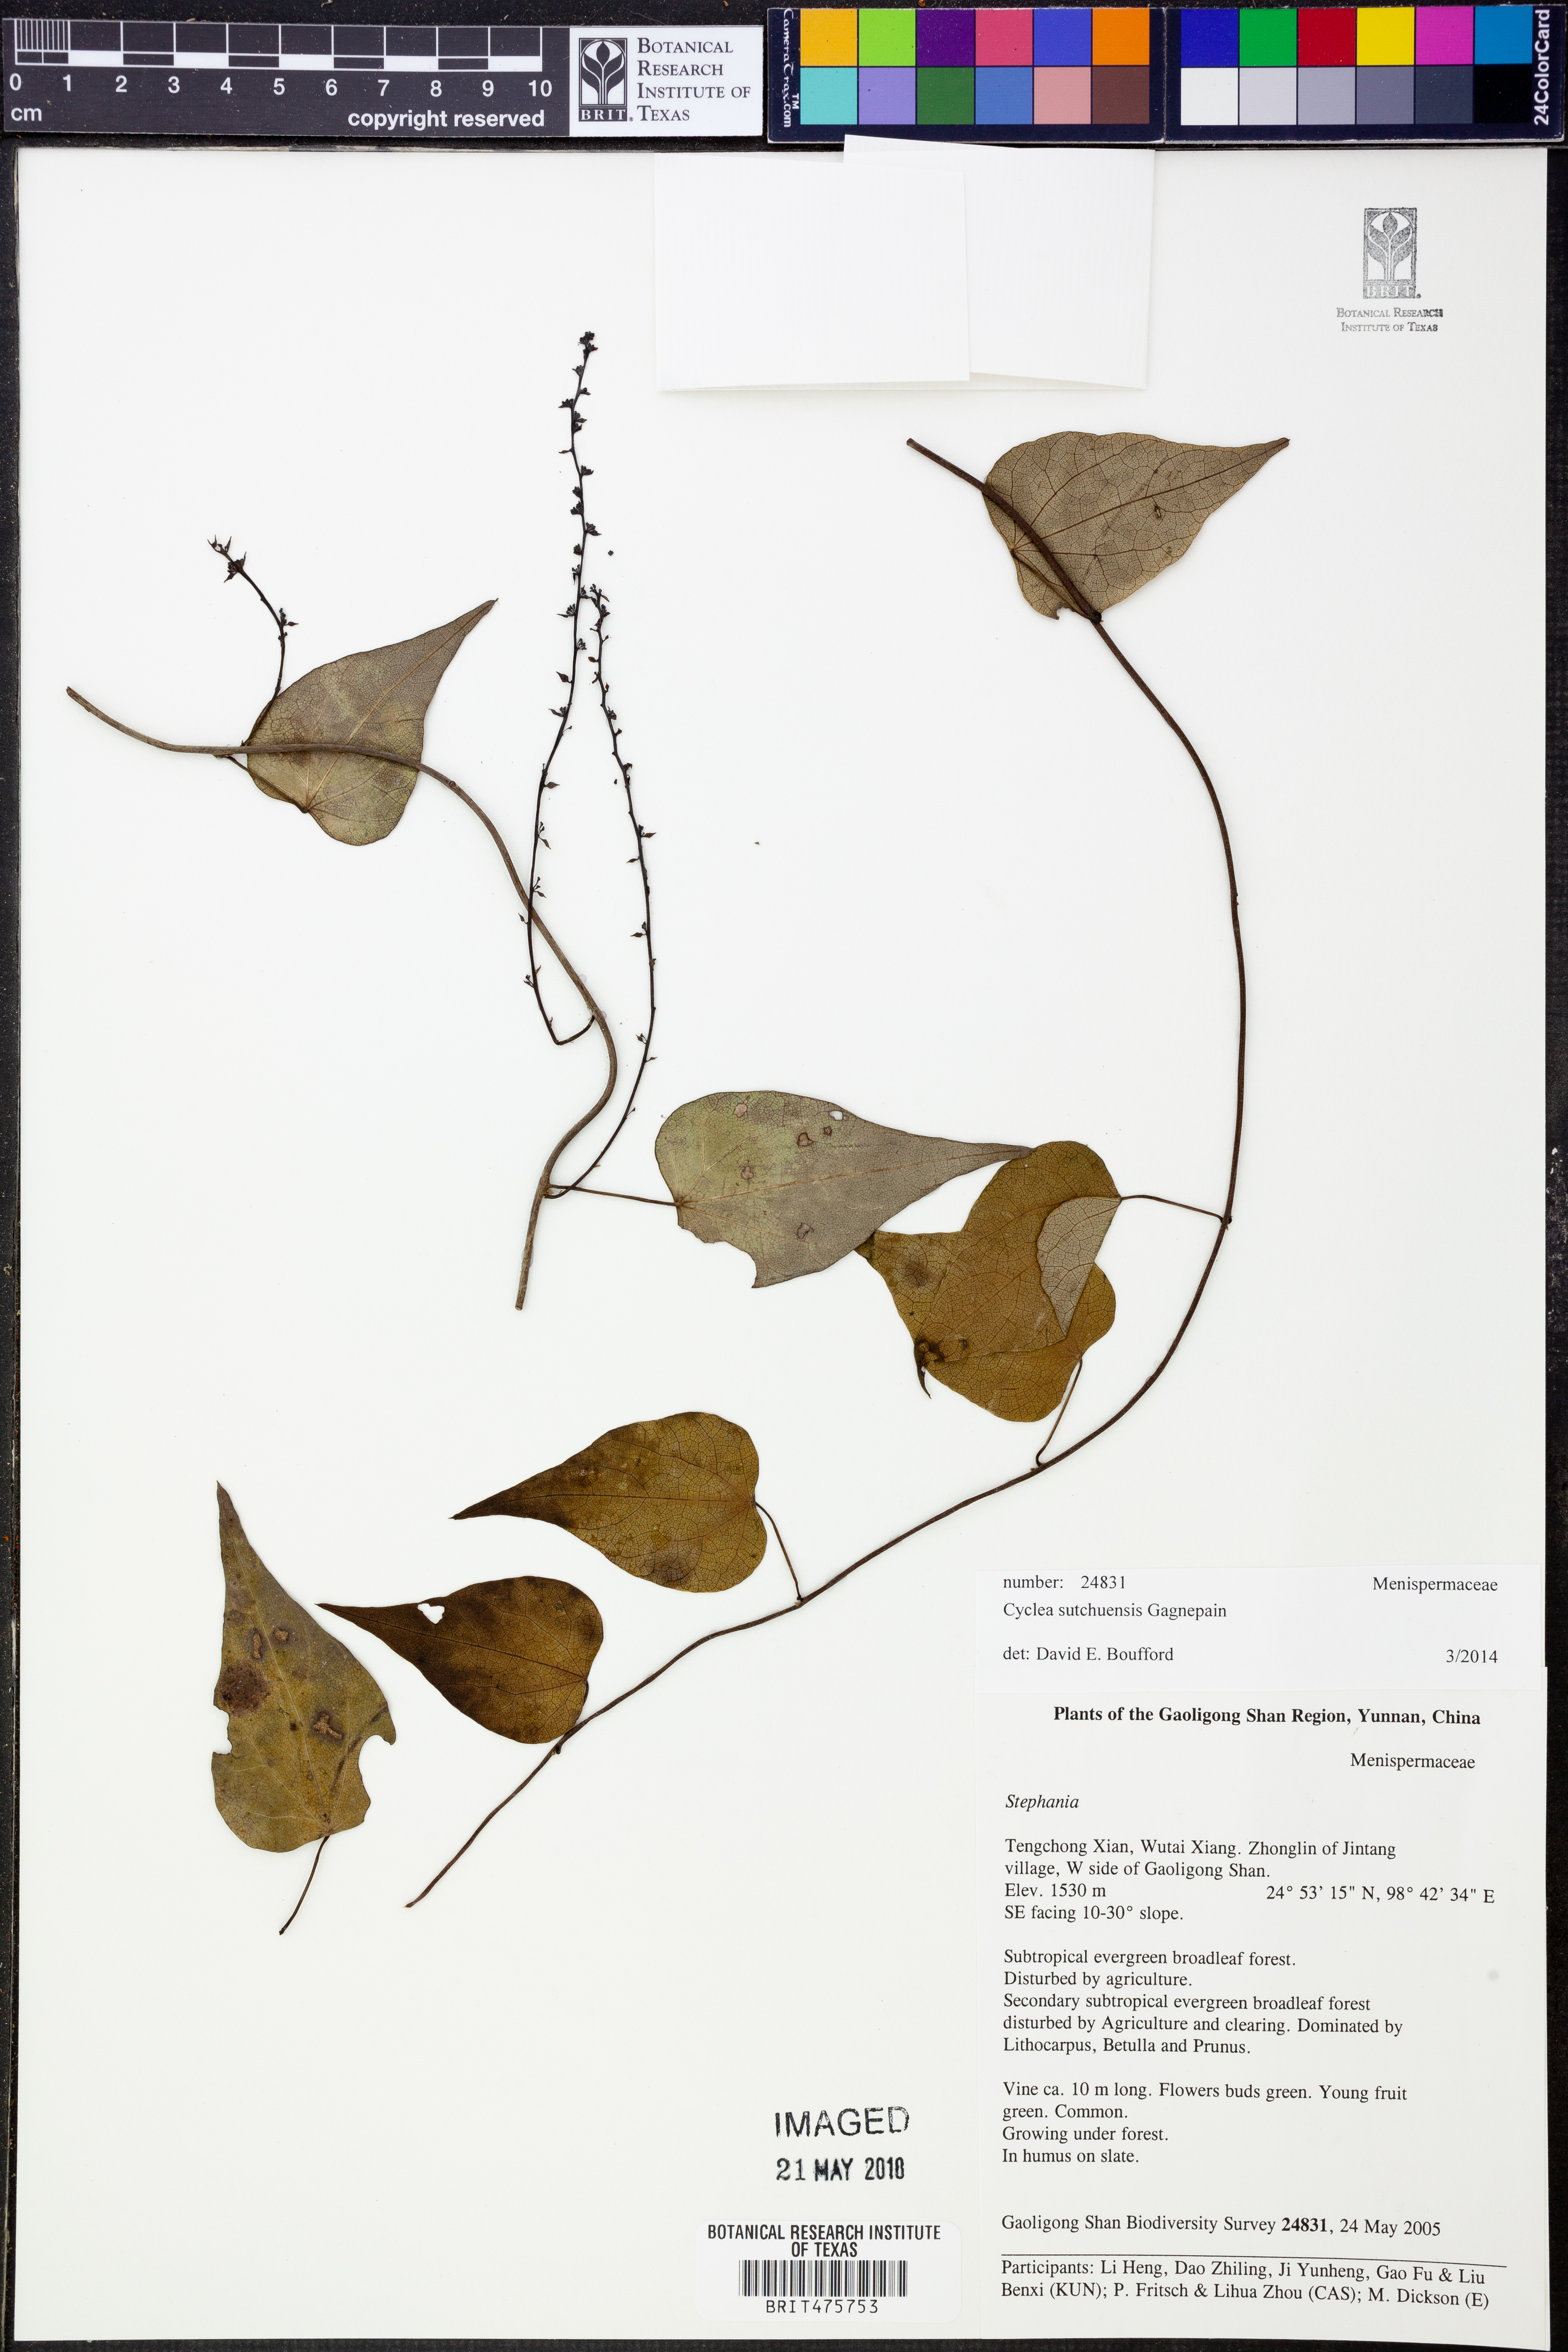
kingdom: Plantae
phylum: Tracheophyta
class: Magnoliopsida
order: Ranunculales
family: Menispermaceae
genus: Cyclea
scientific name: Cyclea sutchuenensis
